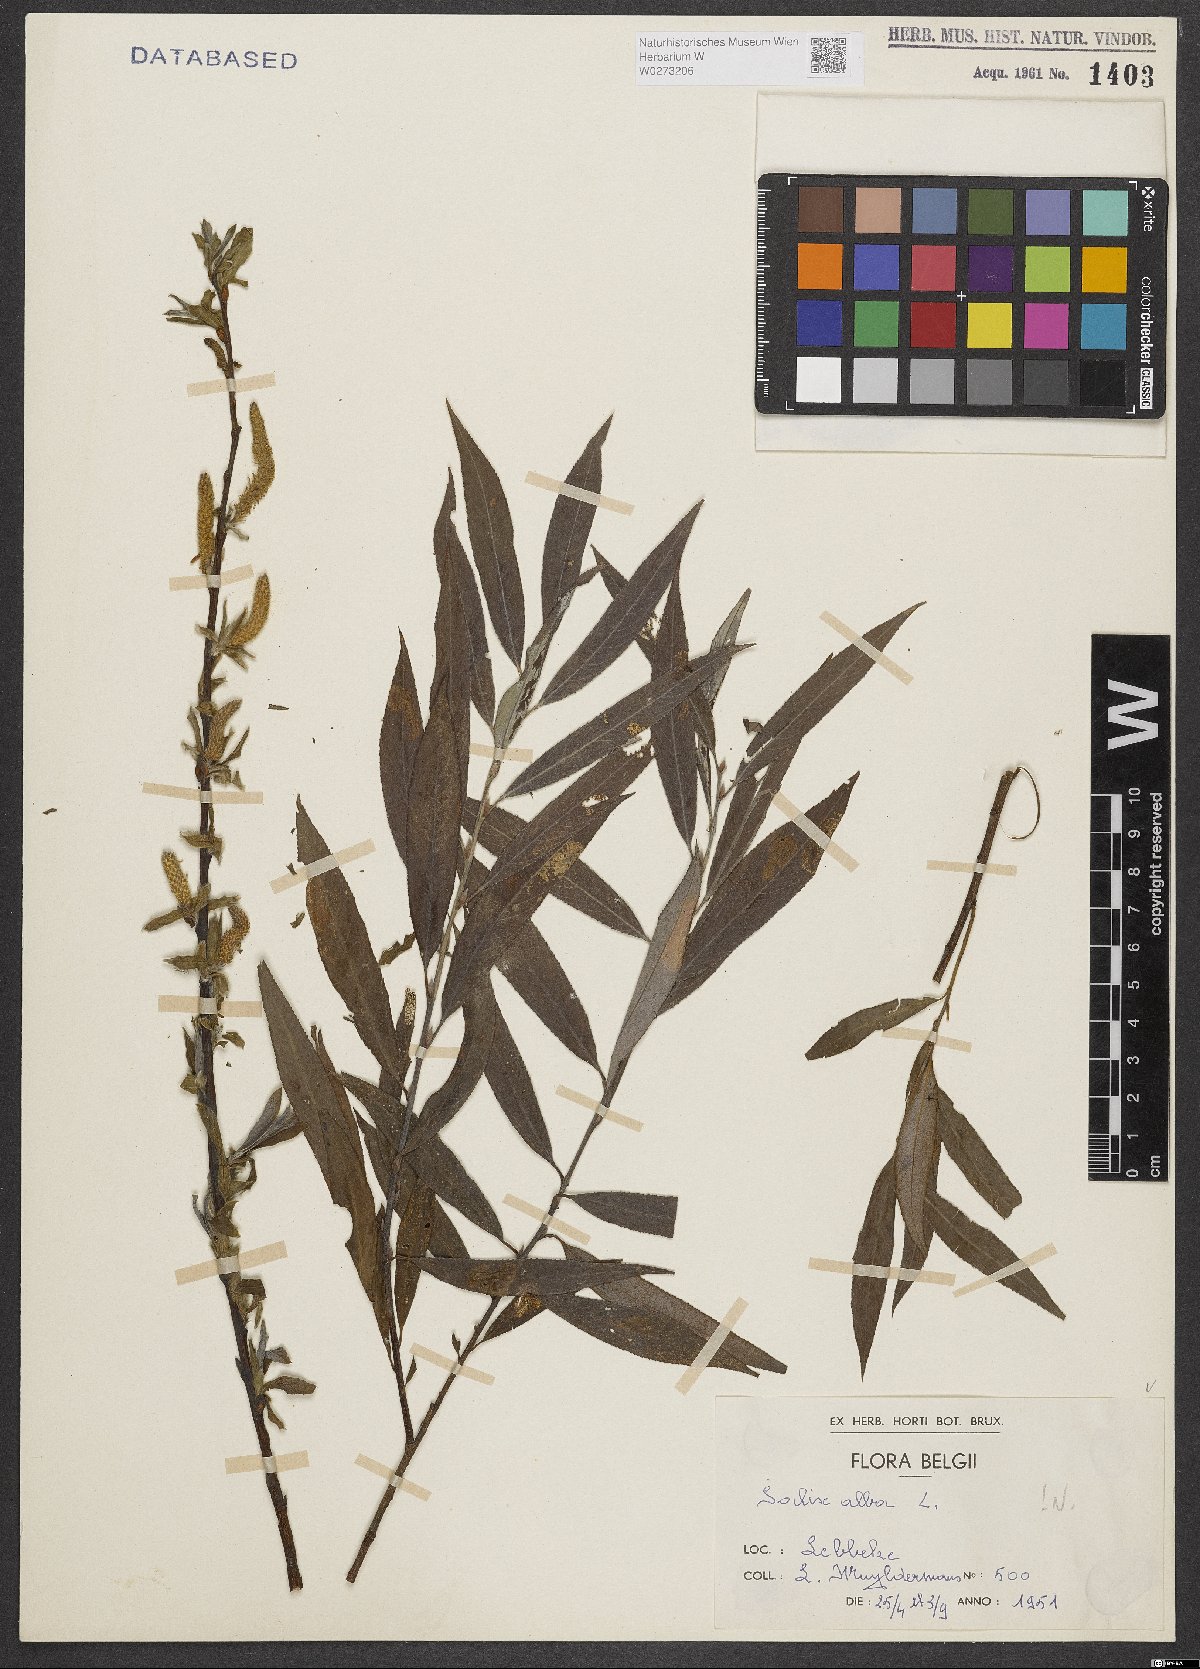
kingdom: Plantae
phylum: Tracheophyta
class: Magnoliopsida
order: Malpighiales
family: Salicaceae
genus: Salix
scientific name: Salix alba
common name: White willow
